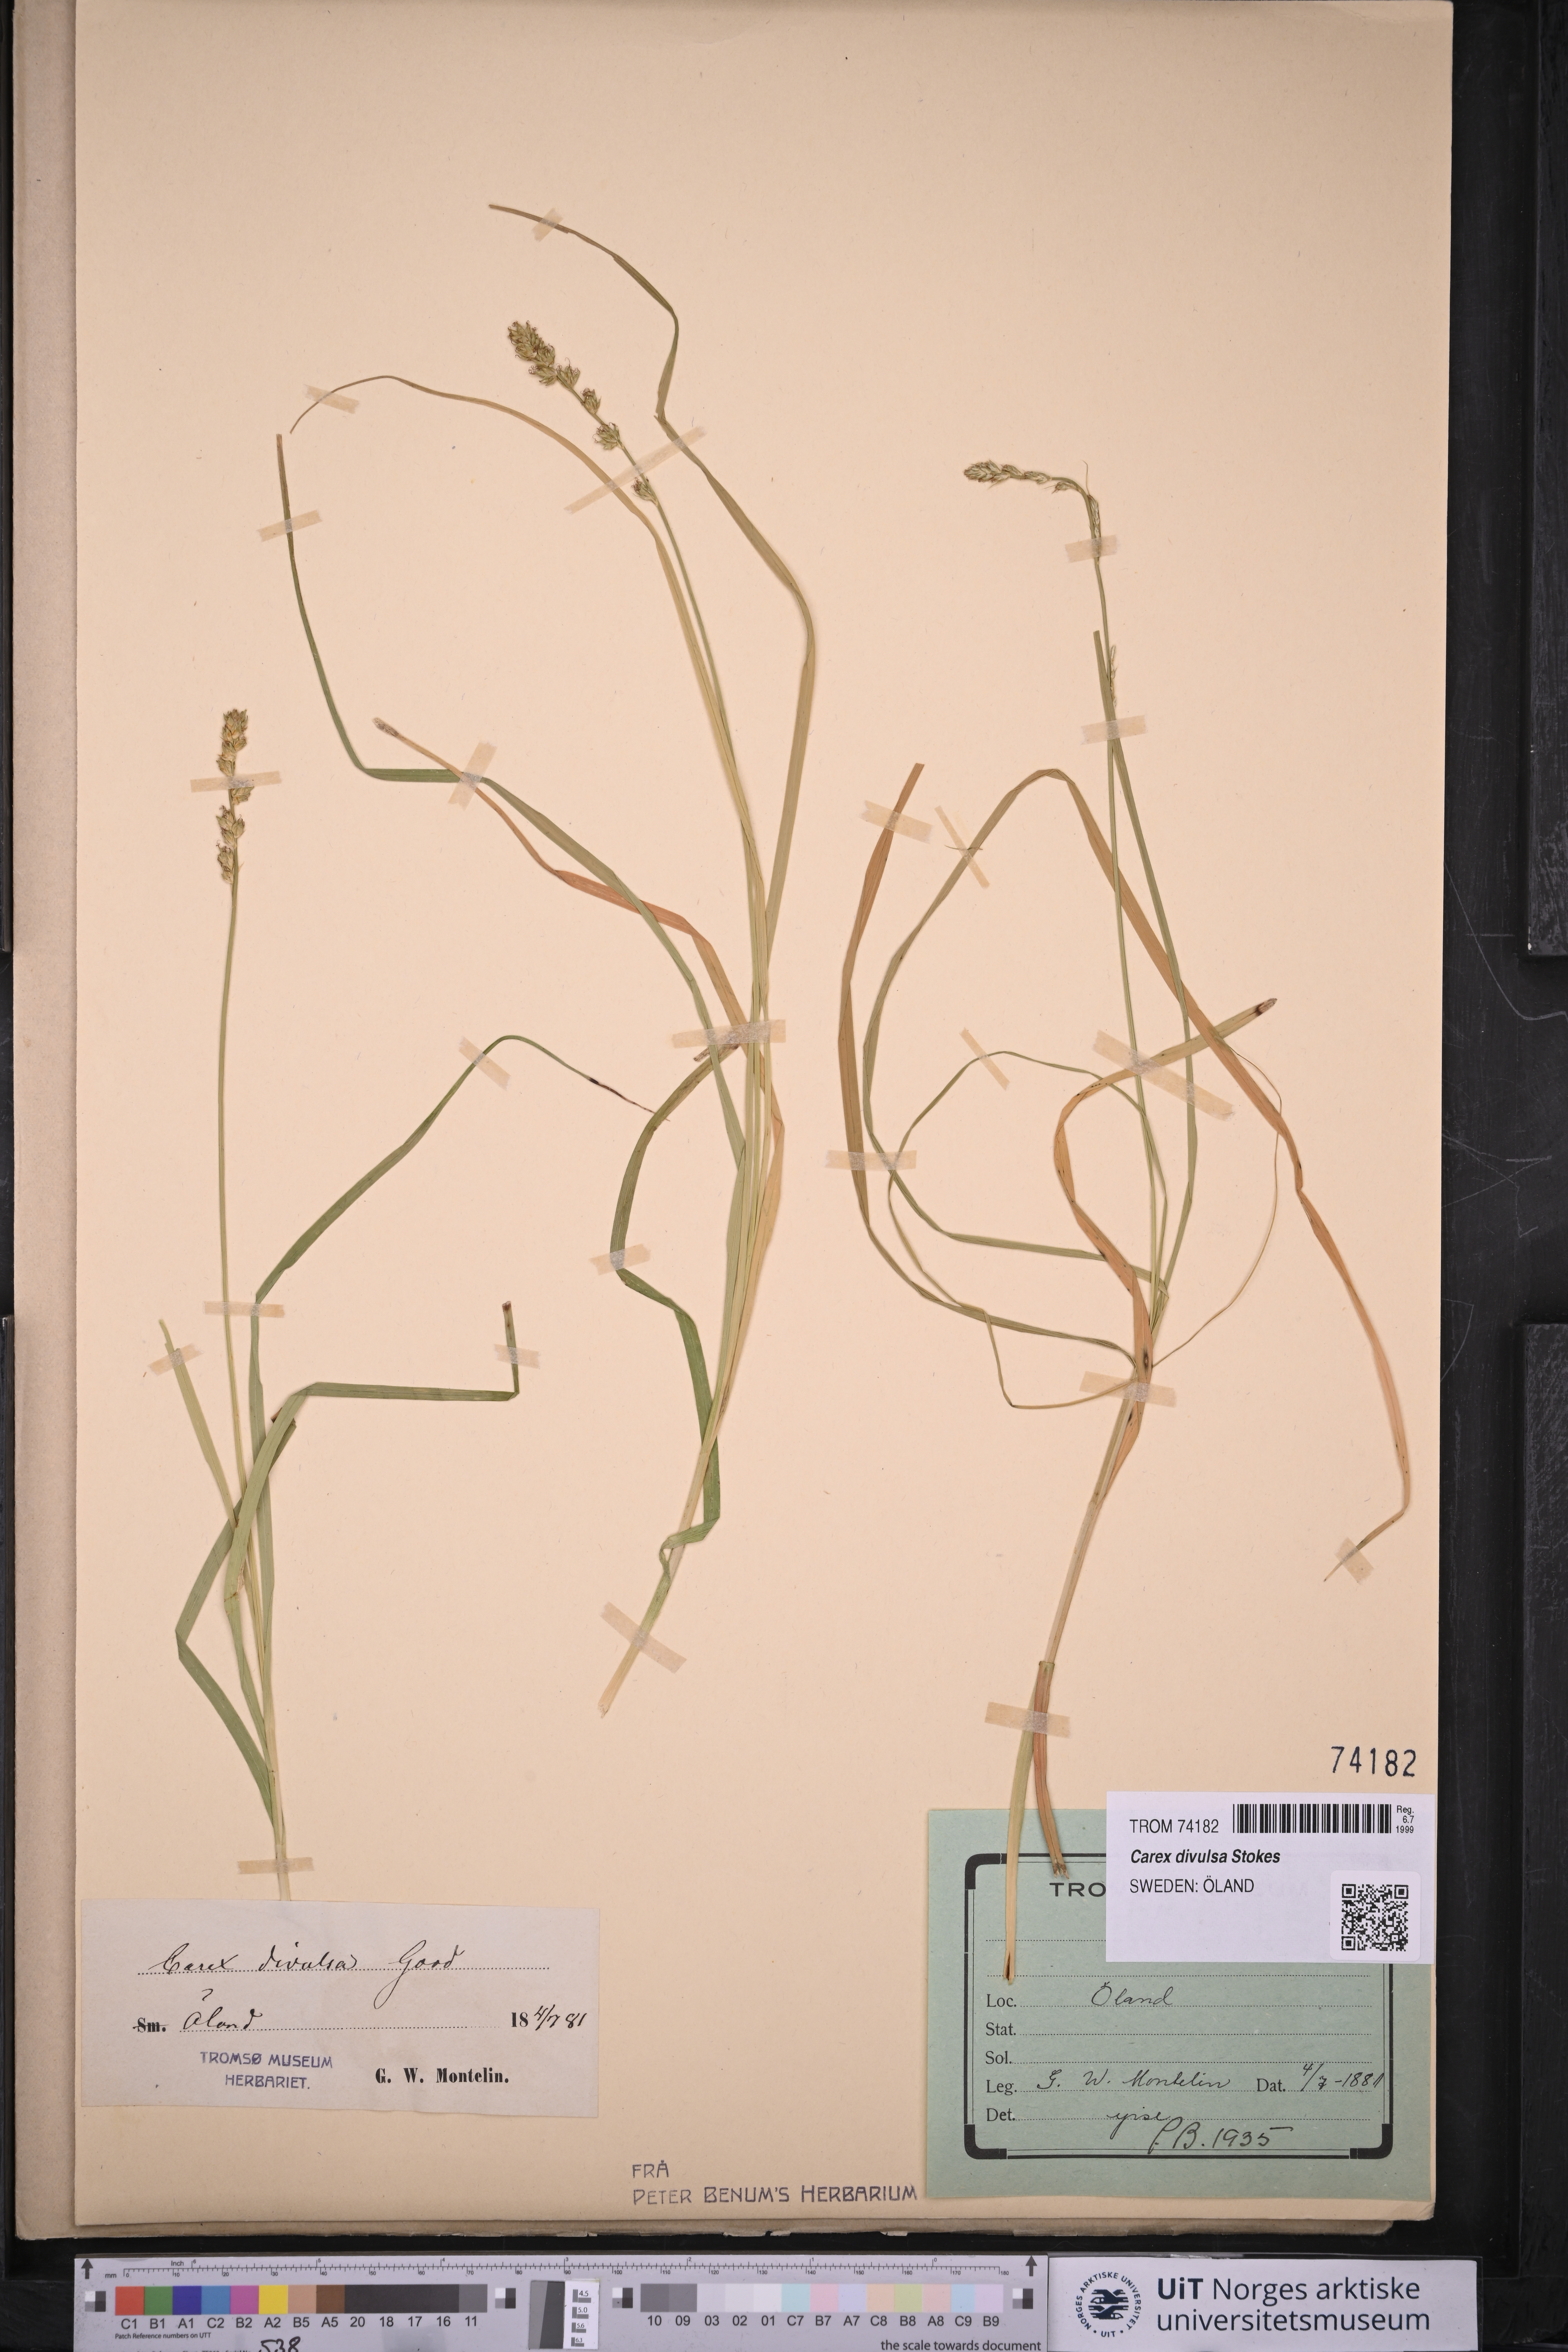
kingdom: Plantae
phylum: Tracheophyta
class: Liliopsida
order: Poales
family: Cyperaceae
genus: Carex
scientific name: Carex divulsa
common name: Grassland sedge
